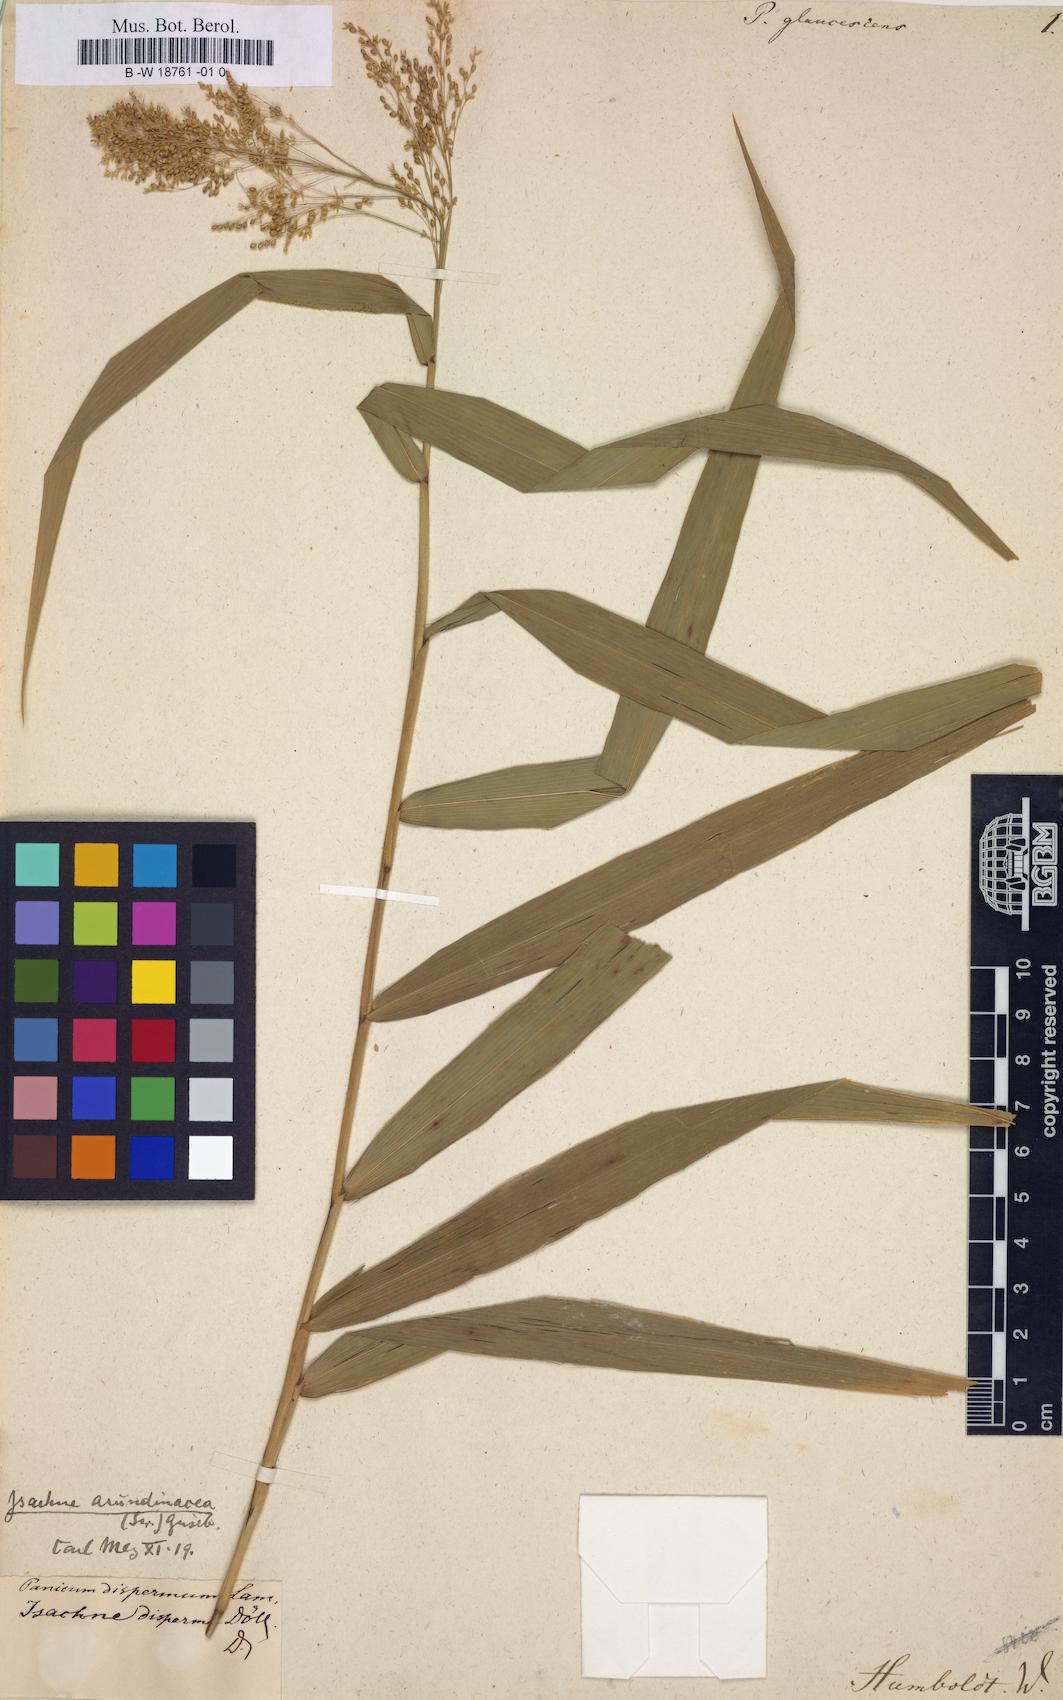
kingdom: Plantae
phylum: Tracheophyta
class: Liliopsida
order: Poales
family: Poaceae
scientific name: Poaceae
